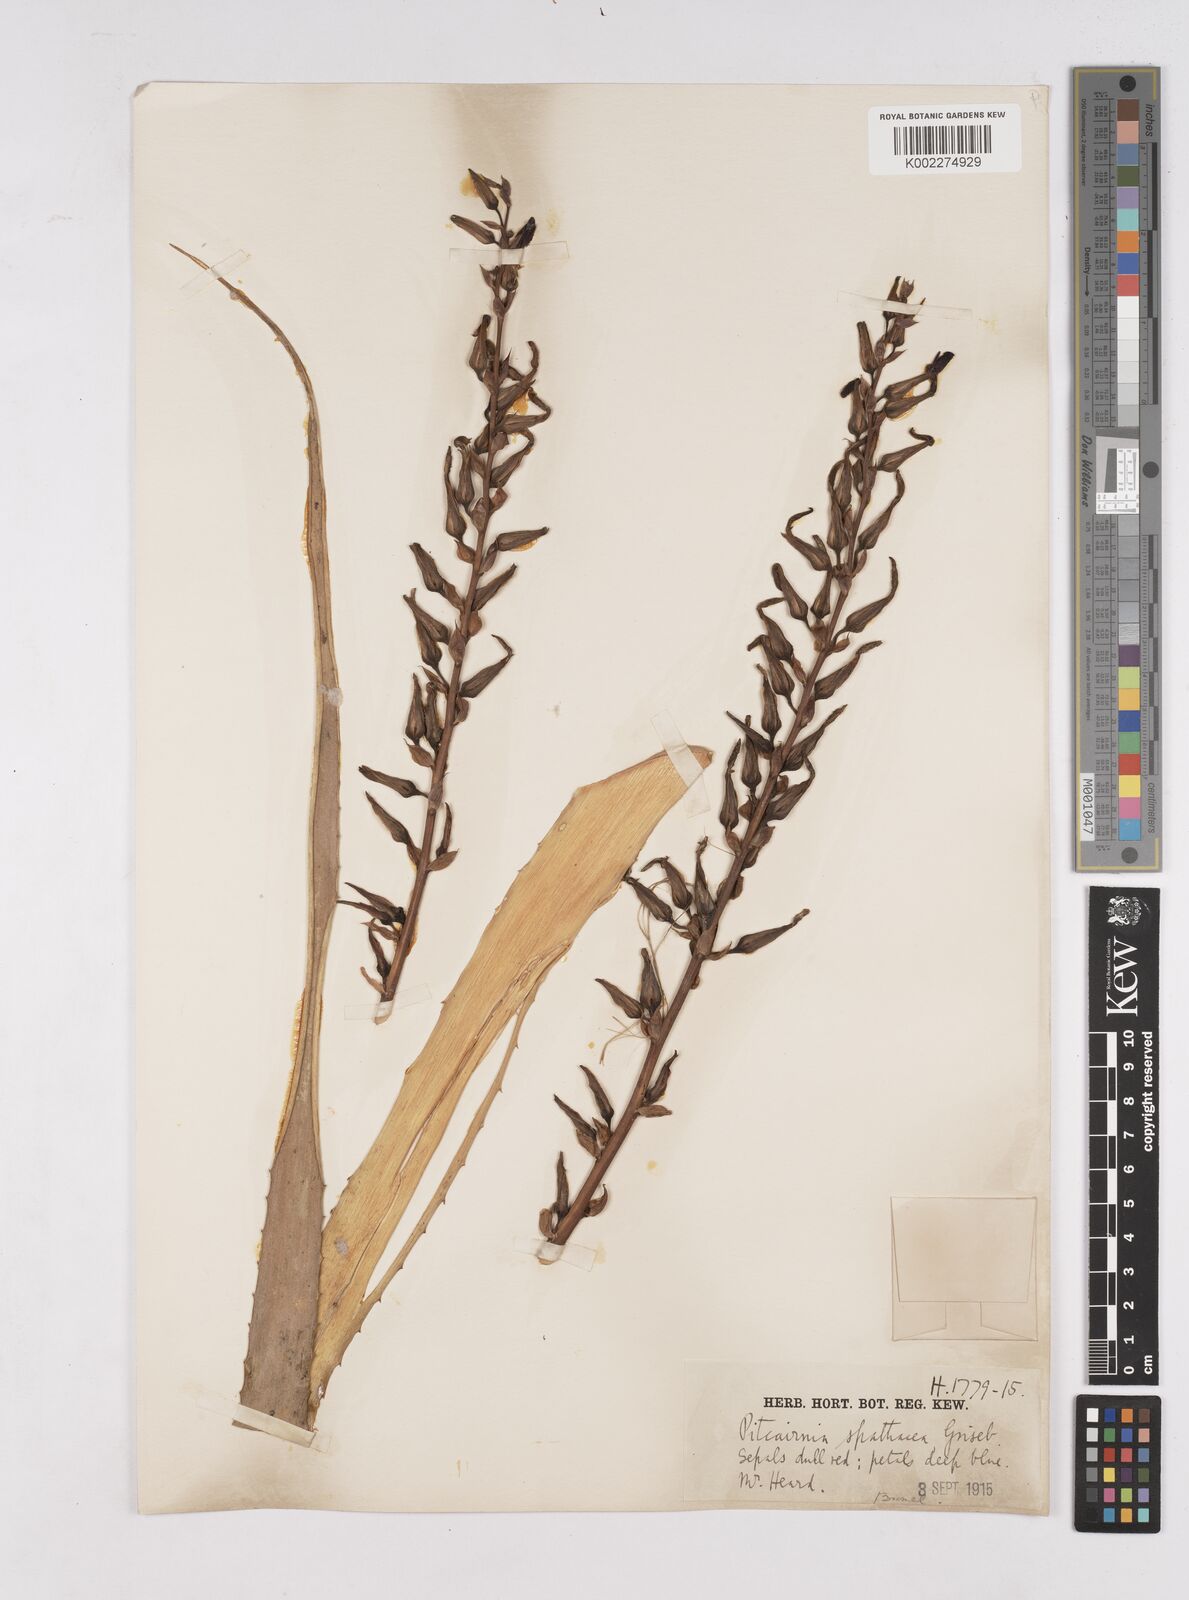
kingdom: Plantae
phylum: Tracheophyta
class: Liliopsida
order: Poales
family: Bromeliaceae
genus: Puya
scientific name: Puya spathacea
